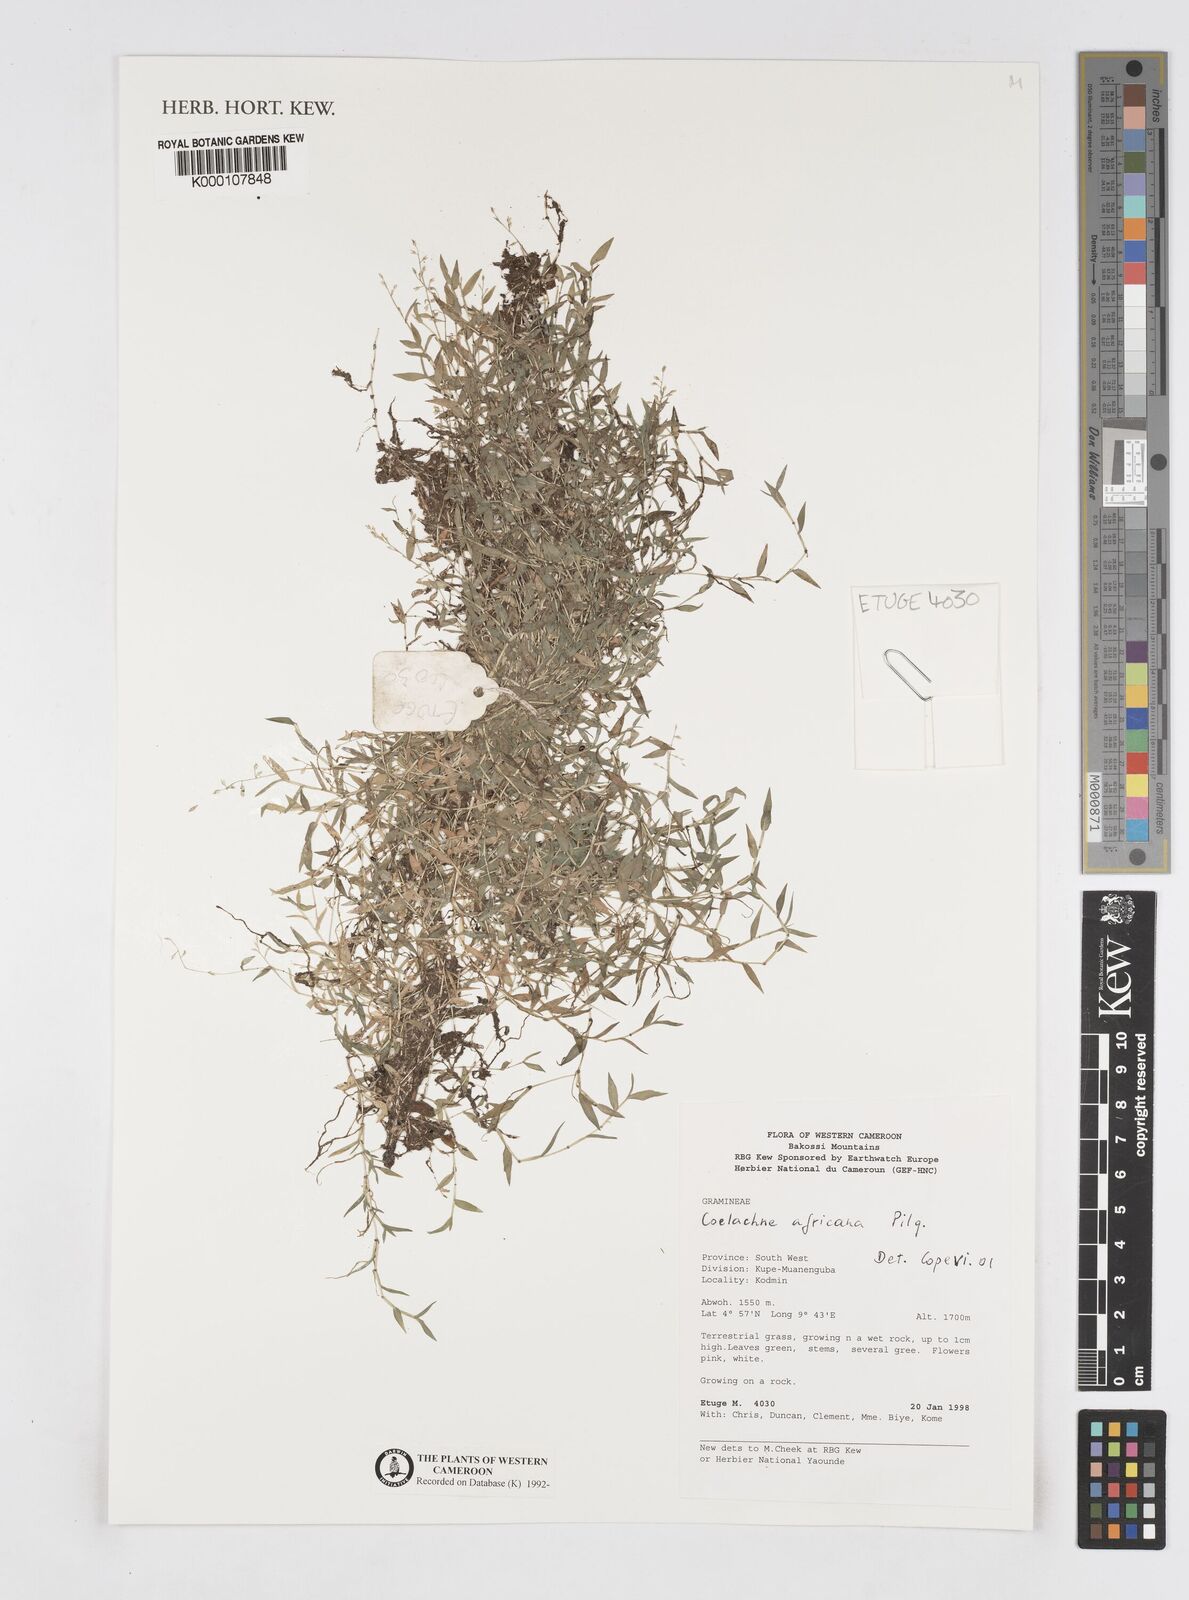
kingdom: Plantae
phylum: Tracheophyta
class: Liliopsida
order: Poales
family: Poaceae
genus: Coelachne
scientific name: Coelachne africana
